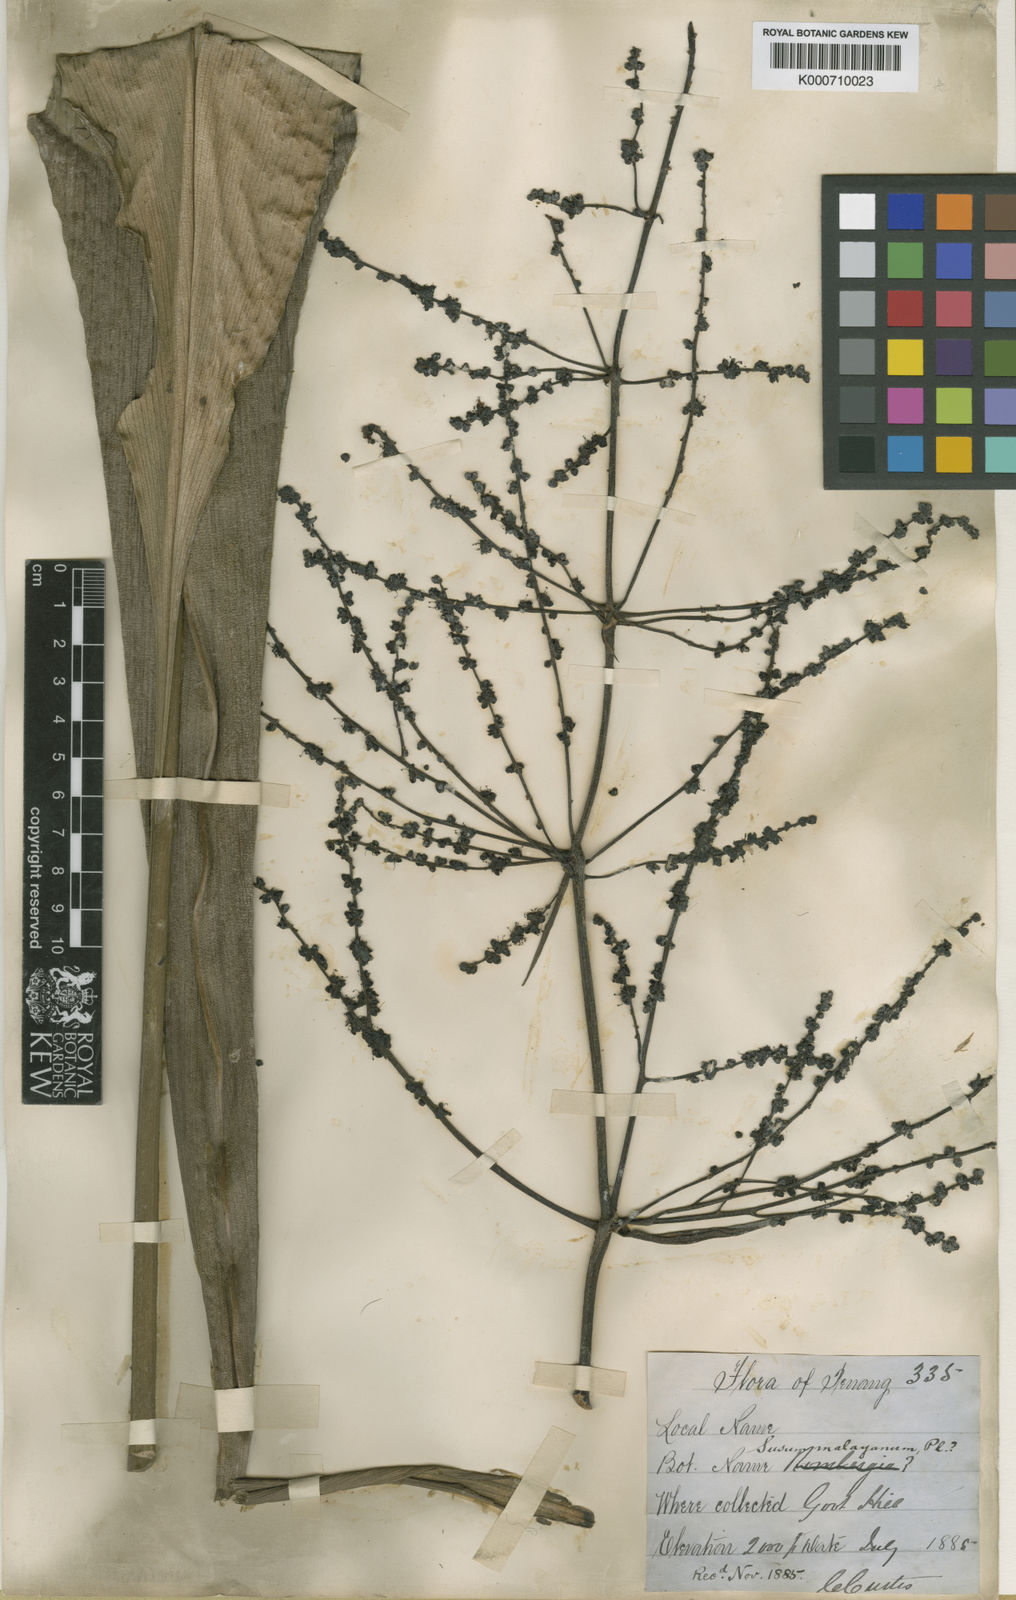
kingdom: Plantae
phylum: Tracheophyta
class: Liliopsida
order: Commelinales
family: Hanguanaceae
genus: Hanguana
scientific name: Hanguana malayana
